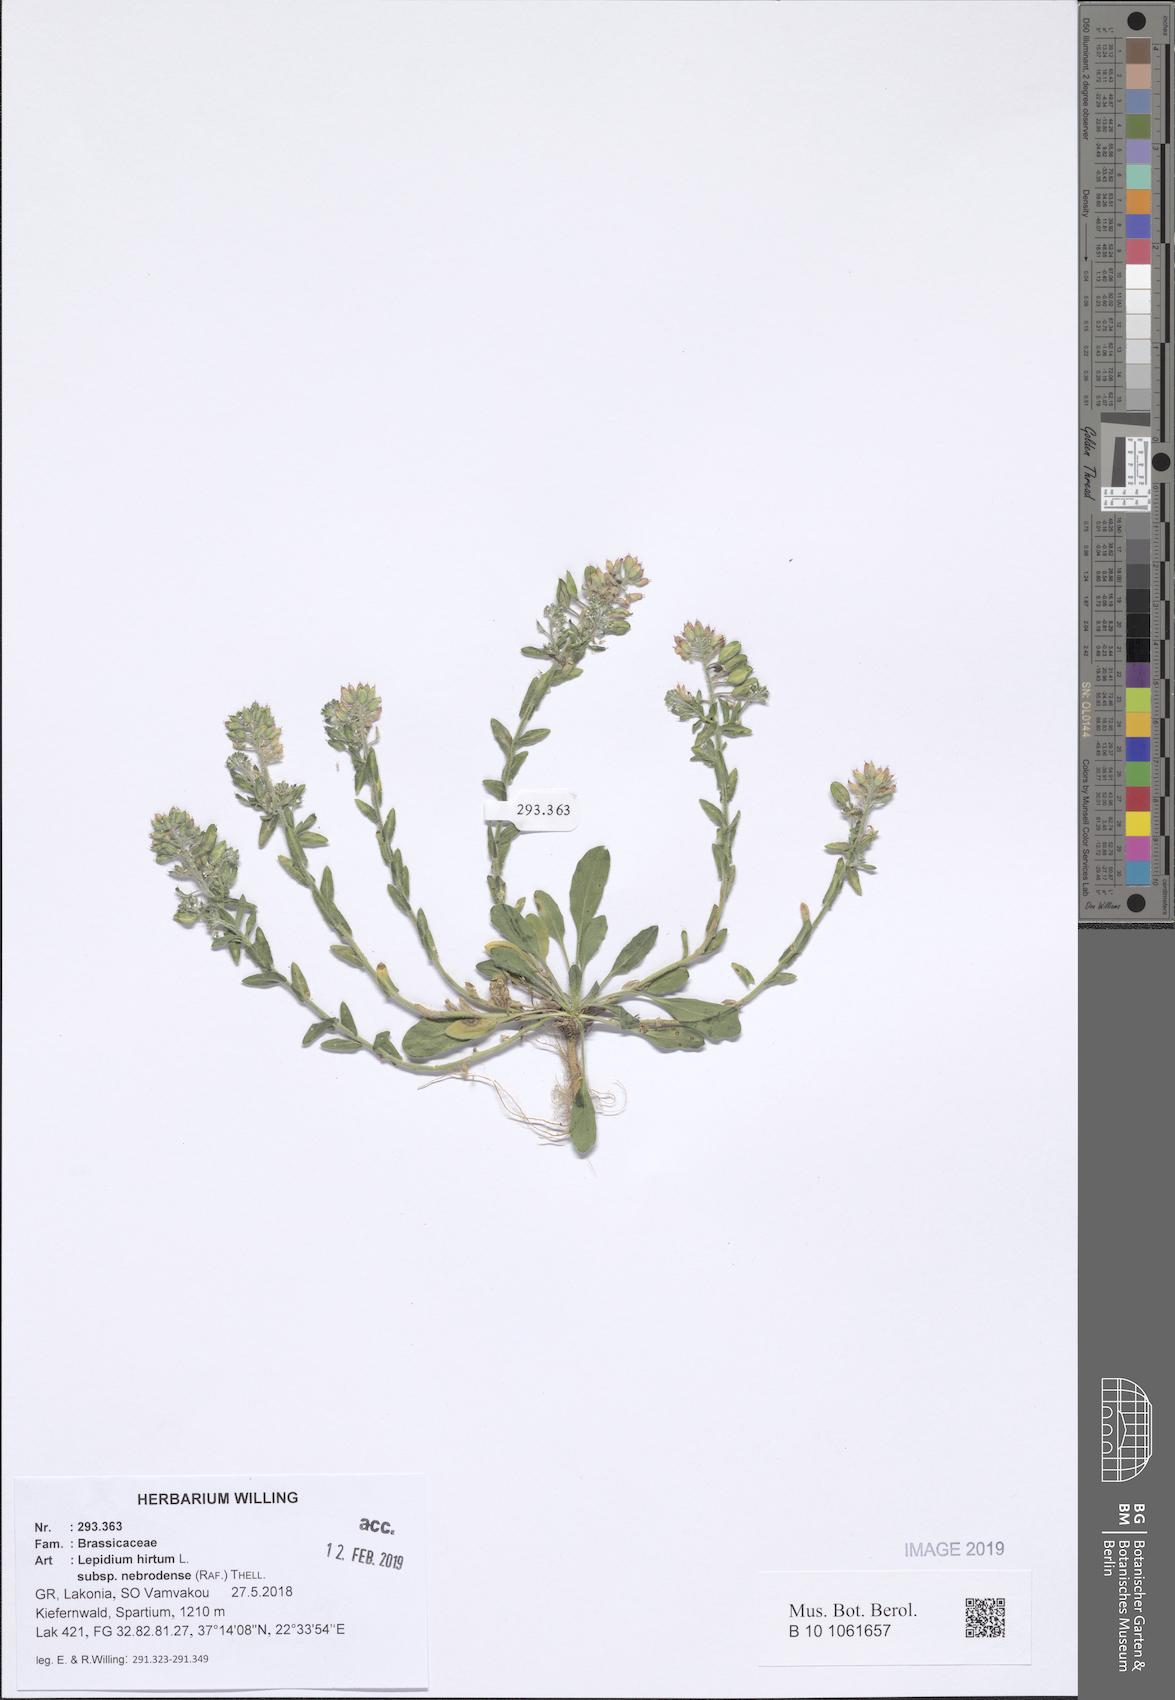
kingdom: Plantae
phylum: Tracheophyta
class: Magnoliopsida
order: Brassicales
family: Brassicaceae
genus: Lepidium
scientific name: Lepidium hirtum
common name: Mediterranean pepperweed
